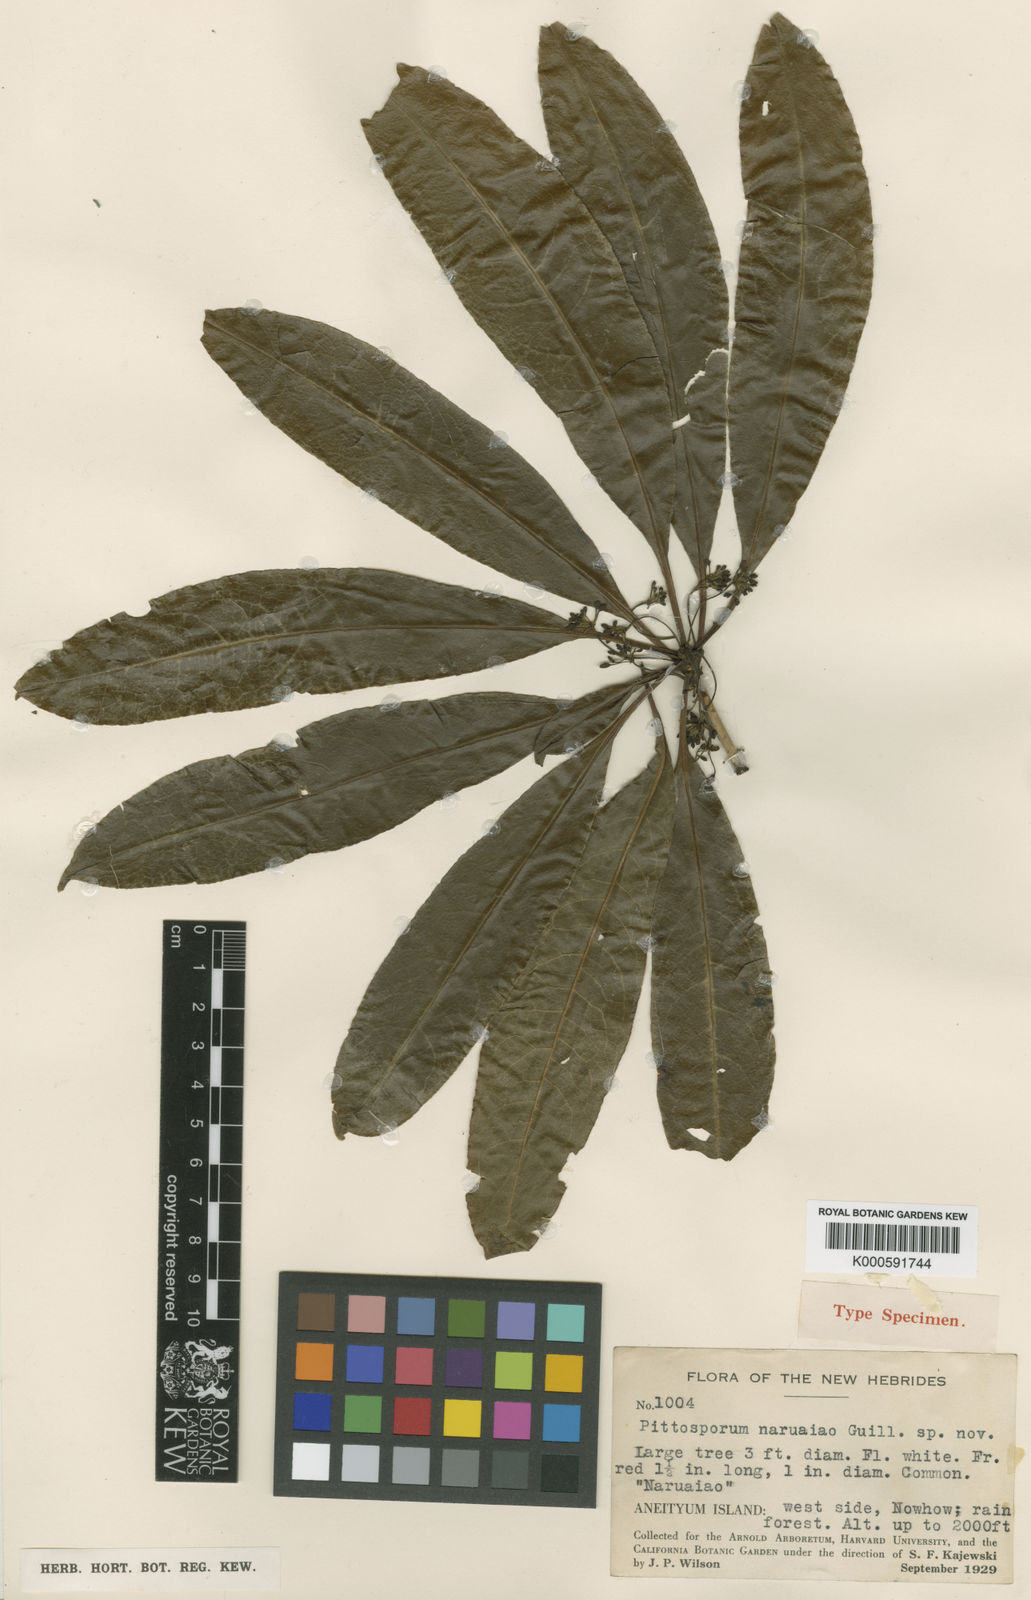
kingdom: Plantae
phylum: Tracheophyta
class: Magnoliopsida
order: Apiales
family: Pittosporaceae
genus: Pittosporum
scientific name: Pittosporum campbellii
